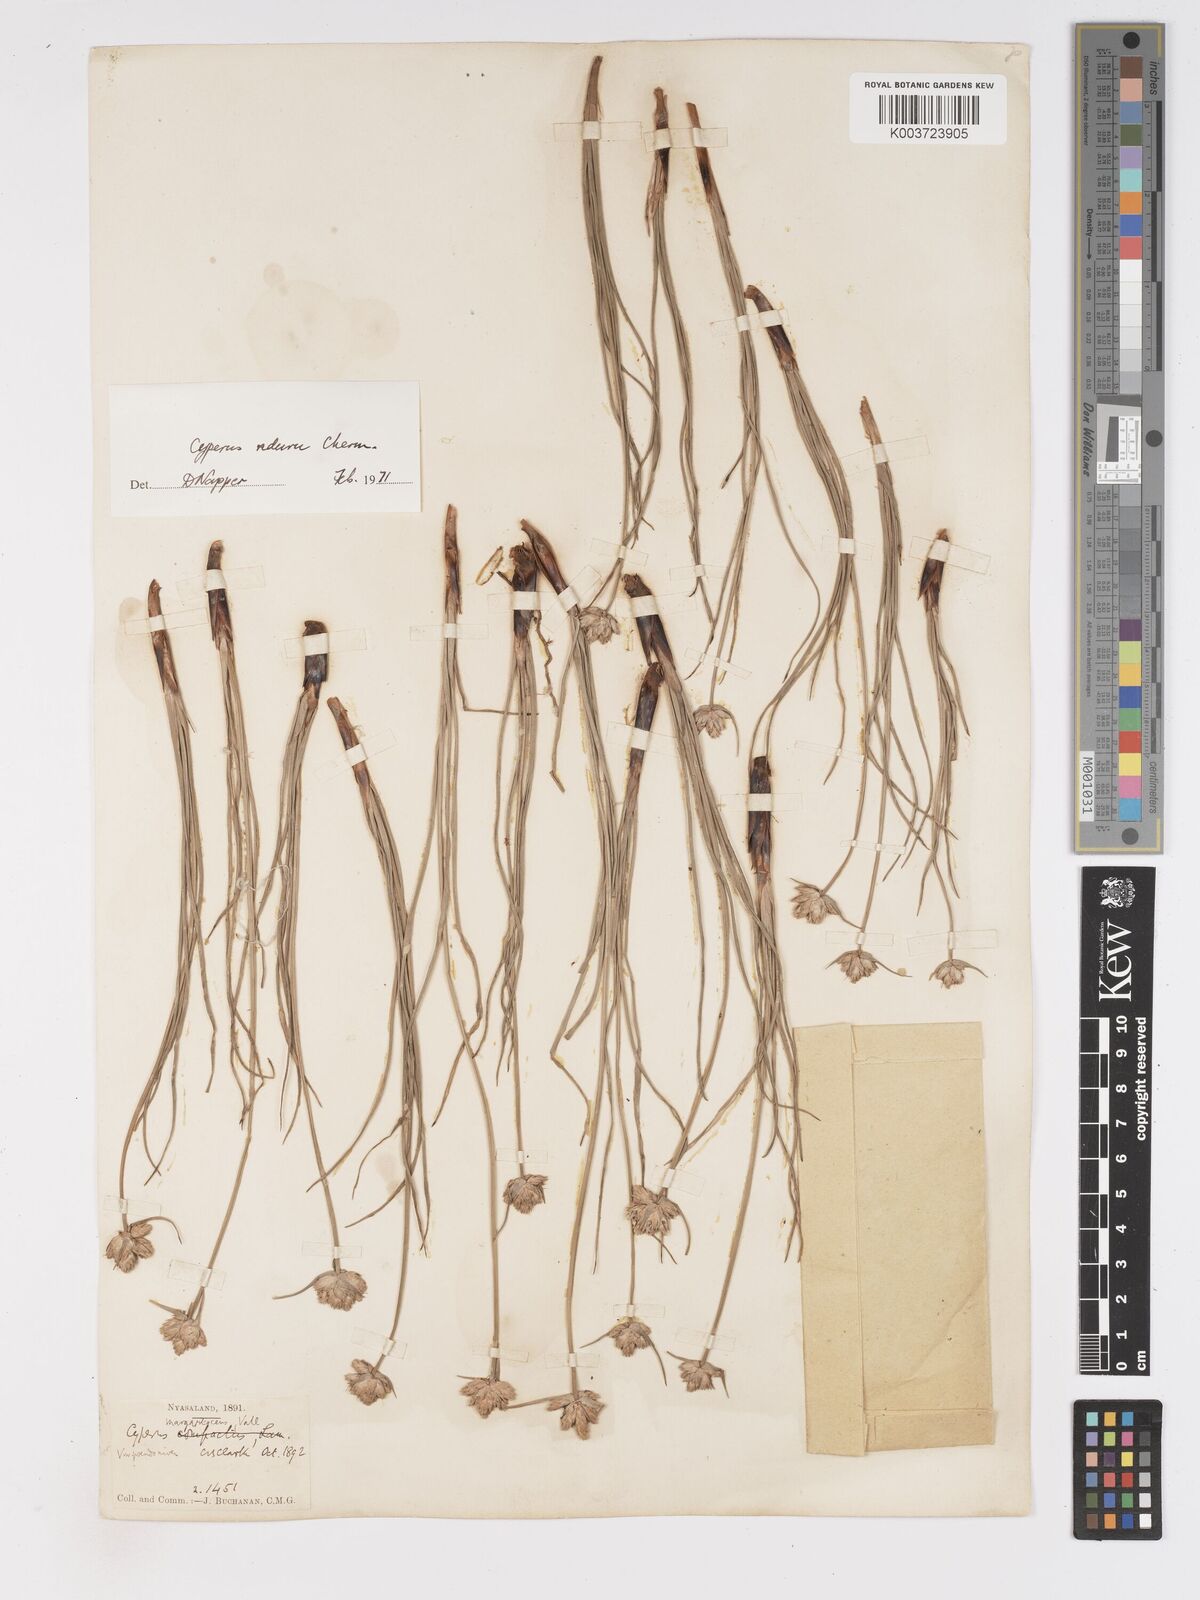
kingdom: Plantae
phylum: Tracheophyta
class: Liliopsida
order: Poales
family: Cyperaceae
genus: Cyperus
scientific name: Cyperus nduru
